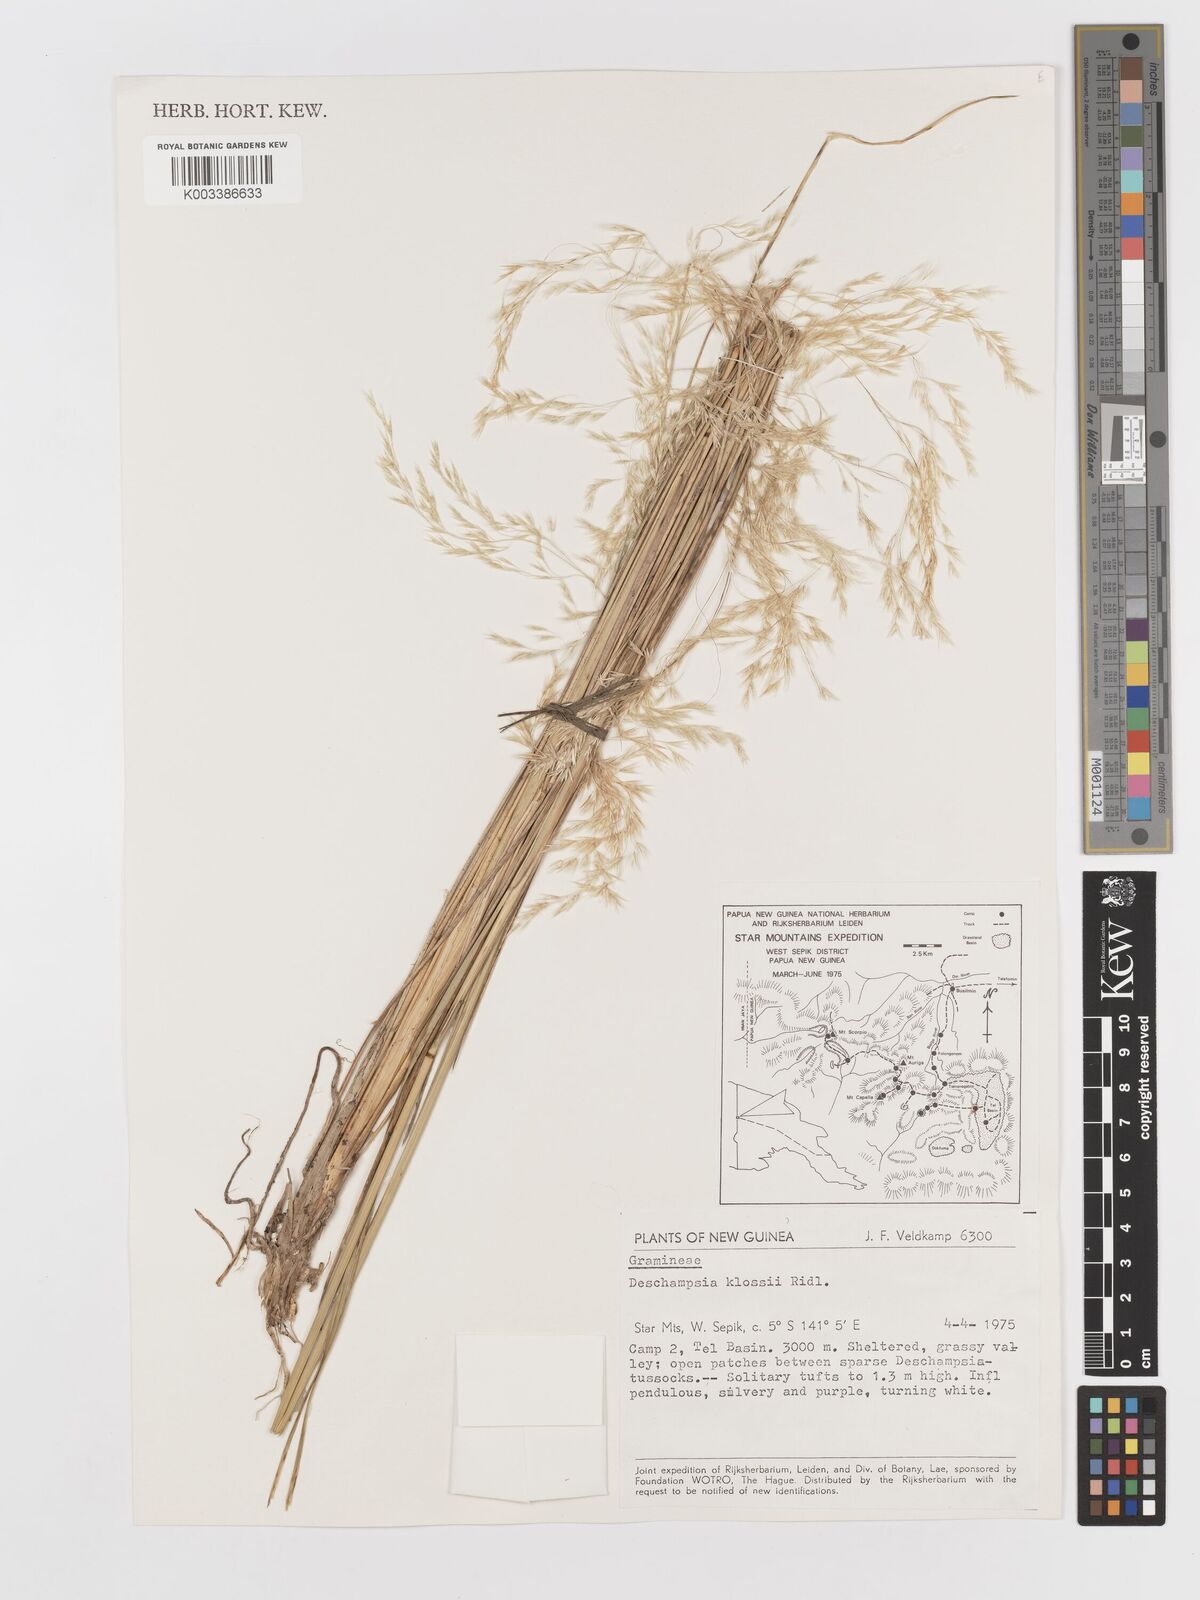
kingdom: Plantae
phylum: Tracheophyta
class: Liliopsida
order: Poales
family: Poaceae
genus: Deschampsia
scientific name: Deschampsia klossii
